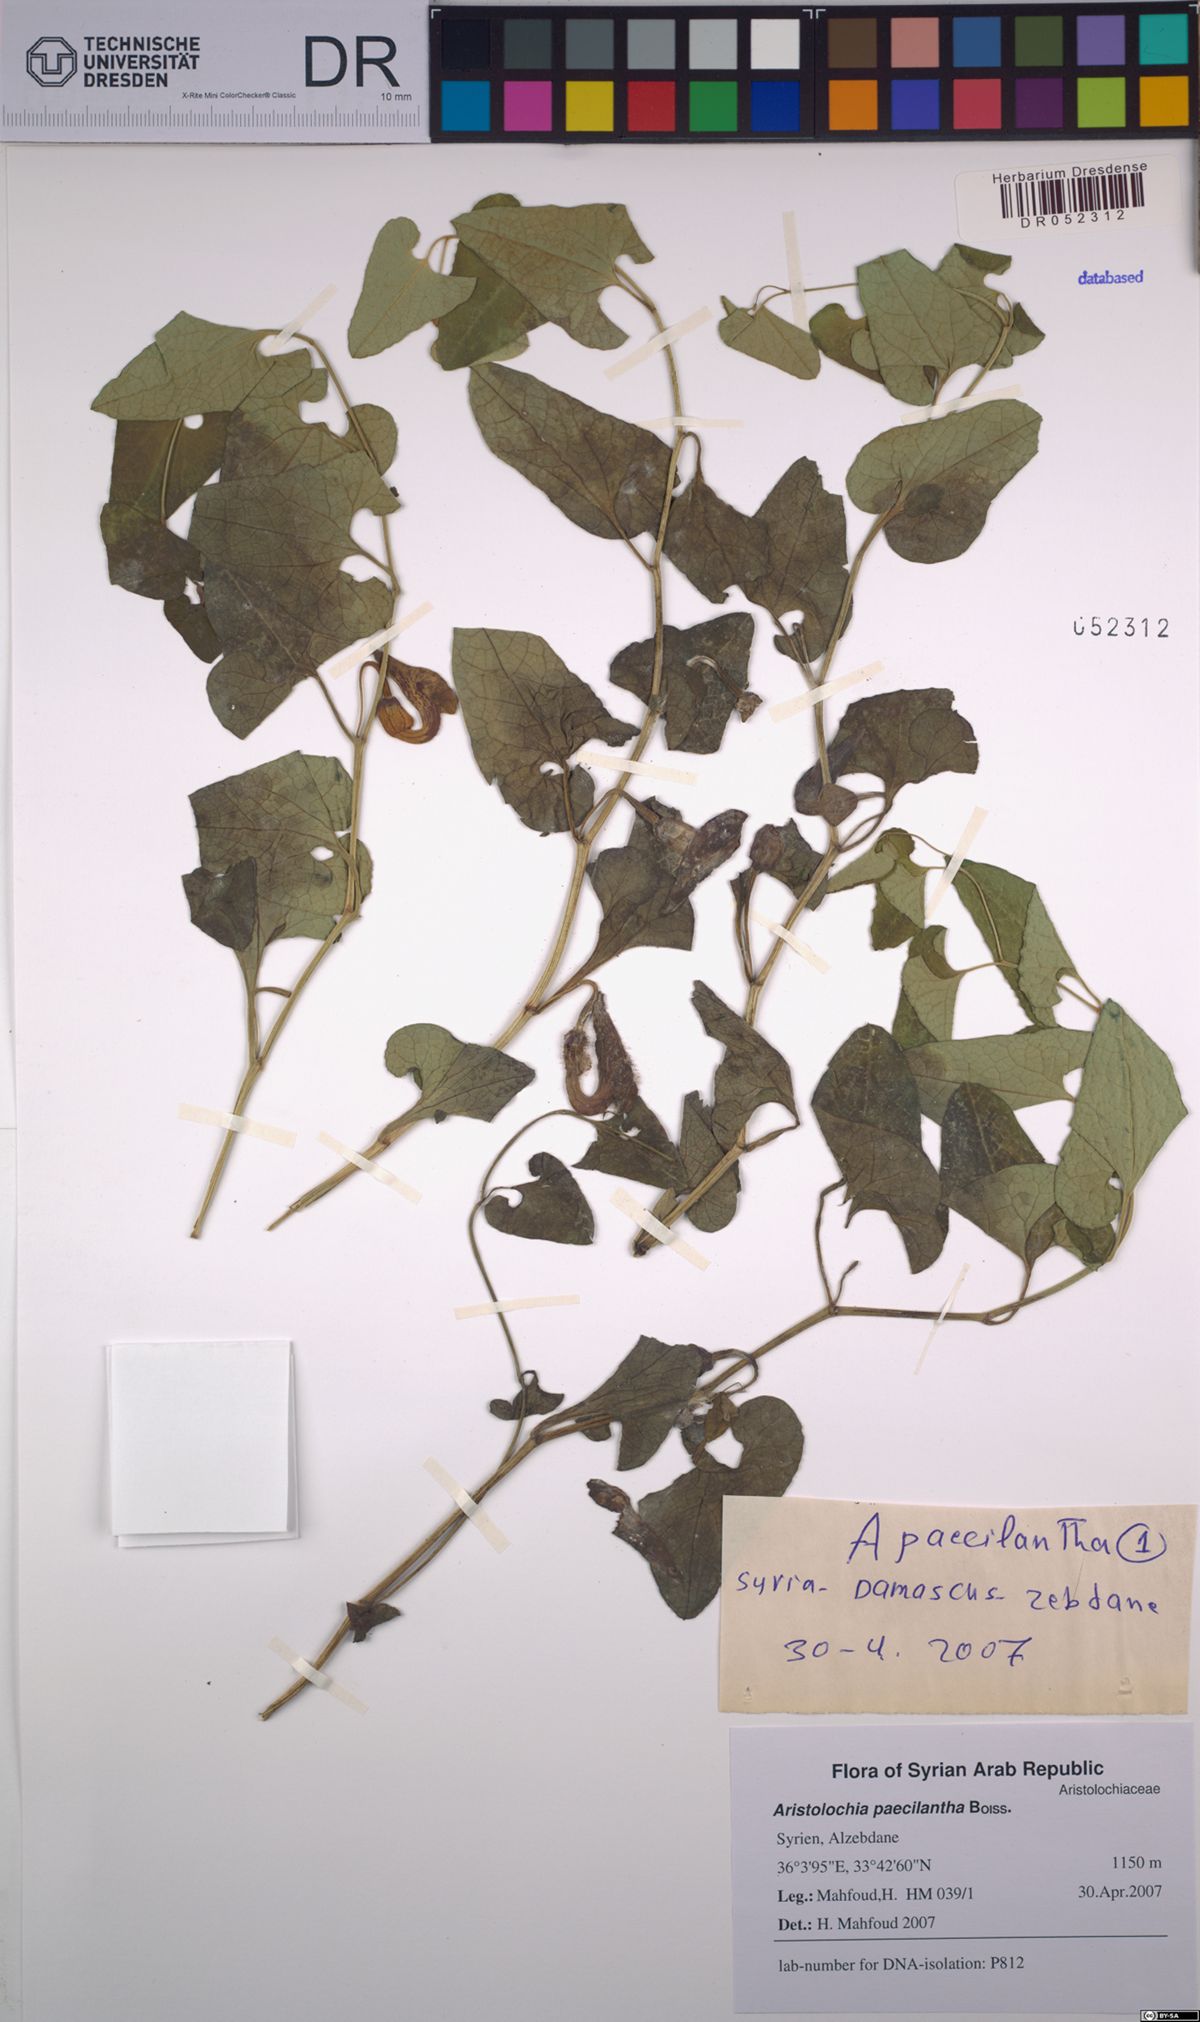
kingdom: Plantae
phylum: Tracheophyta
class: Magnoliopsida
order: Piperales
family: Aristolochiaceae
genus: Aristolochia
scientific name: Aristolochia paecilantha
